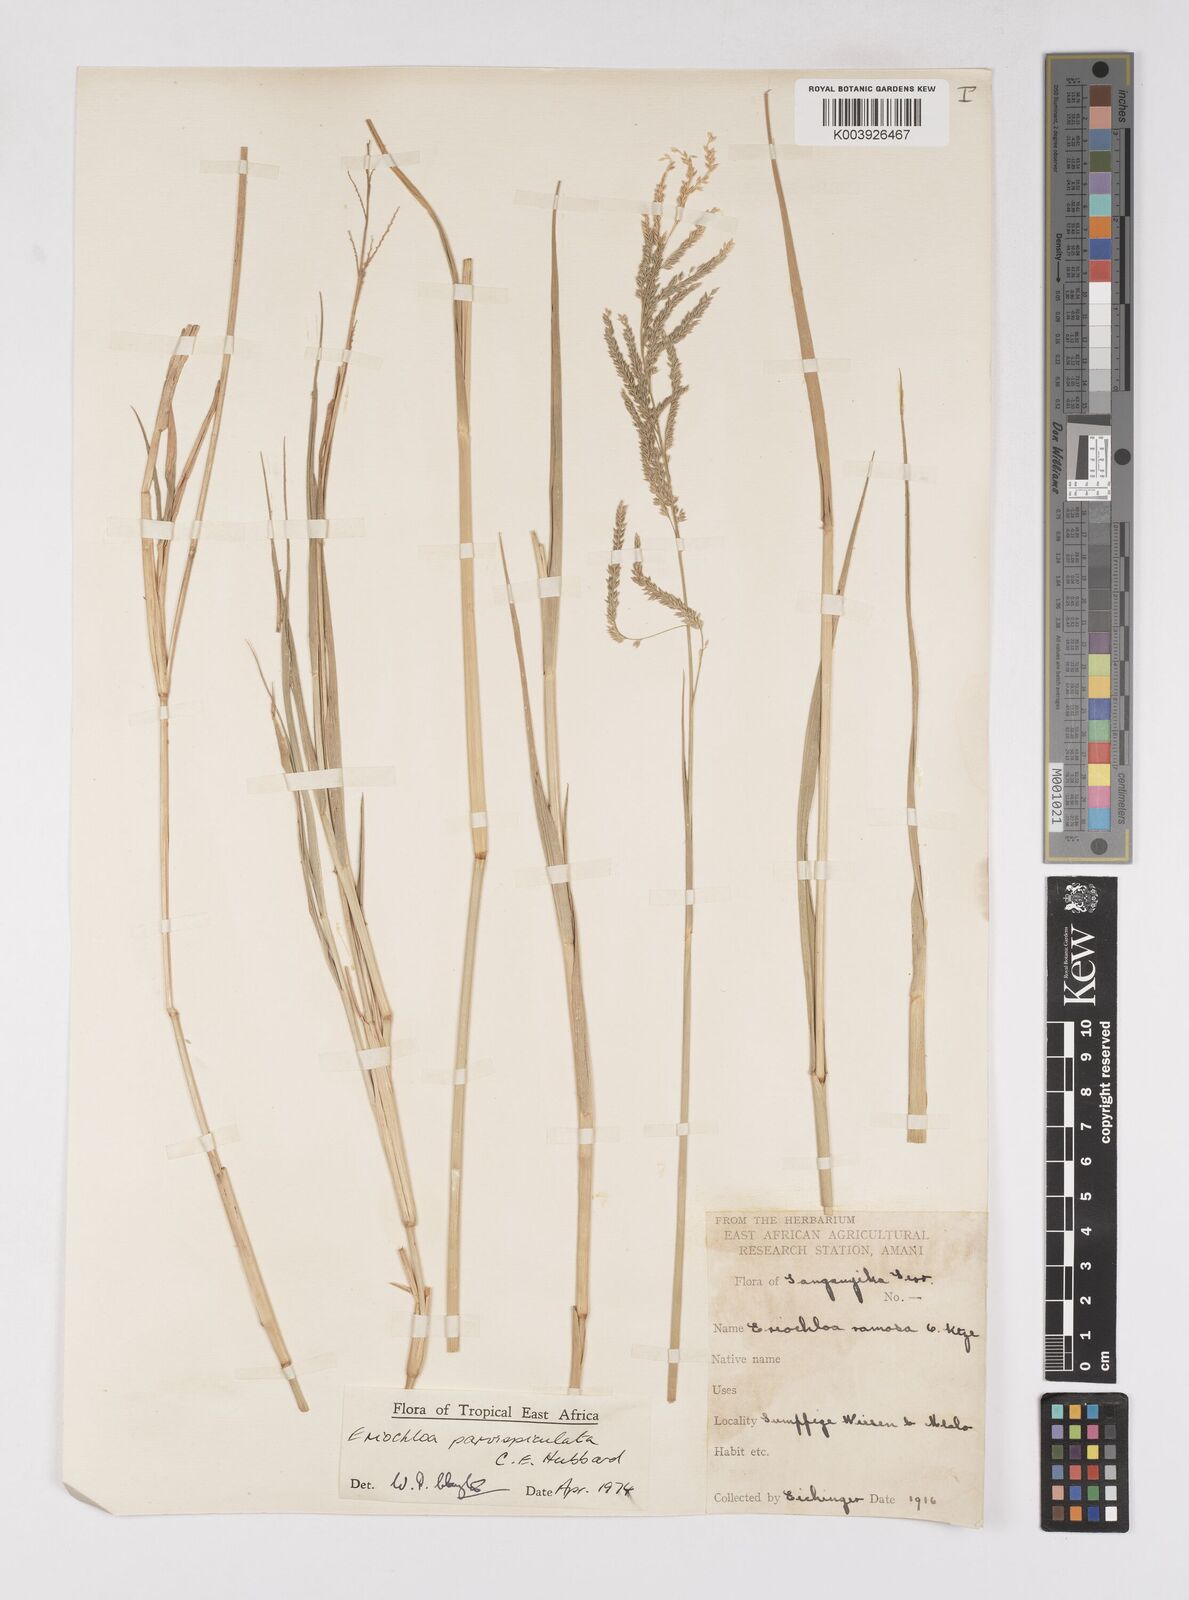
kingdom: Plantae
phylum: Tracheophyta
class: Liliopsida
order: Poales
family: Poaceae
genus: Eriochloa
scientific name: Eriochloa parvispiculata
